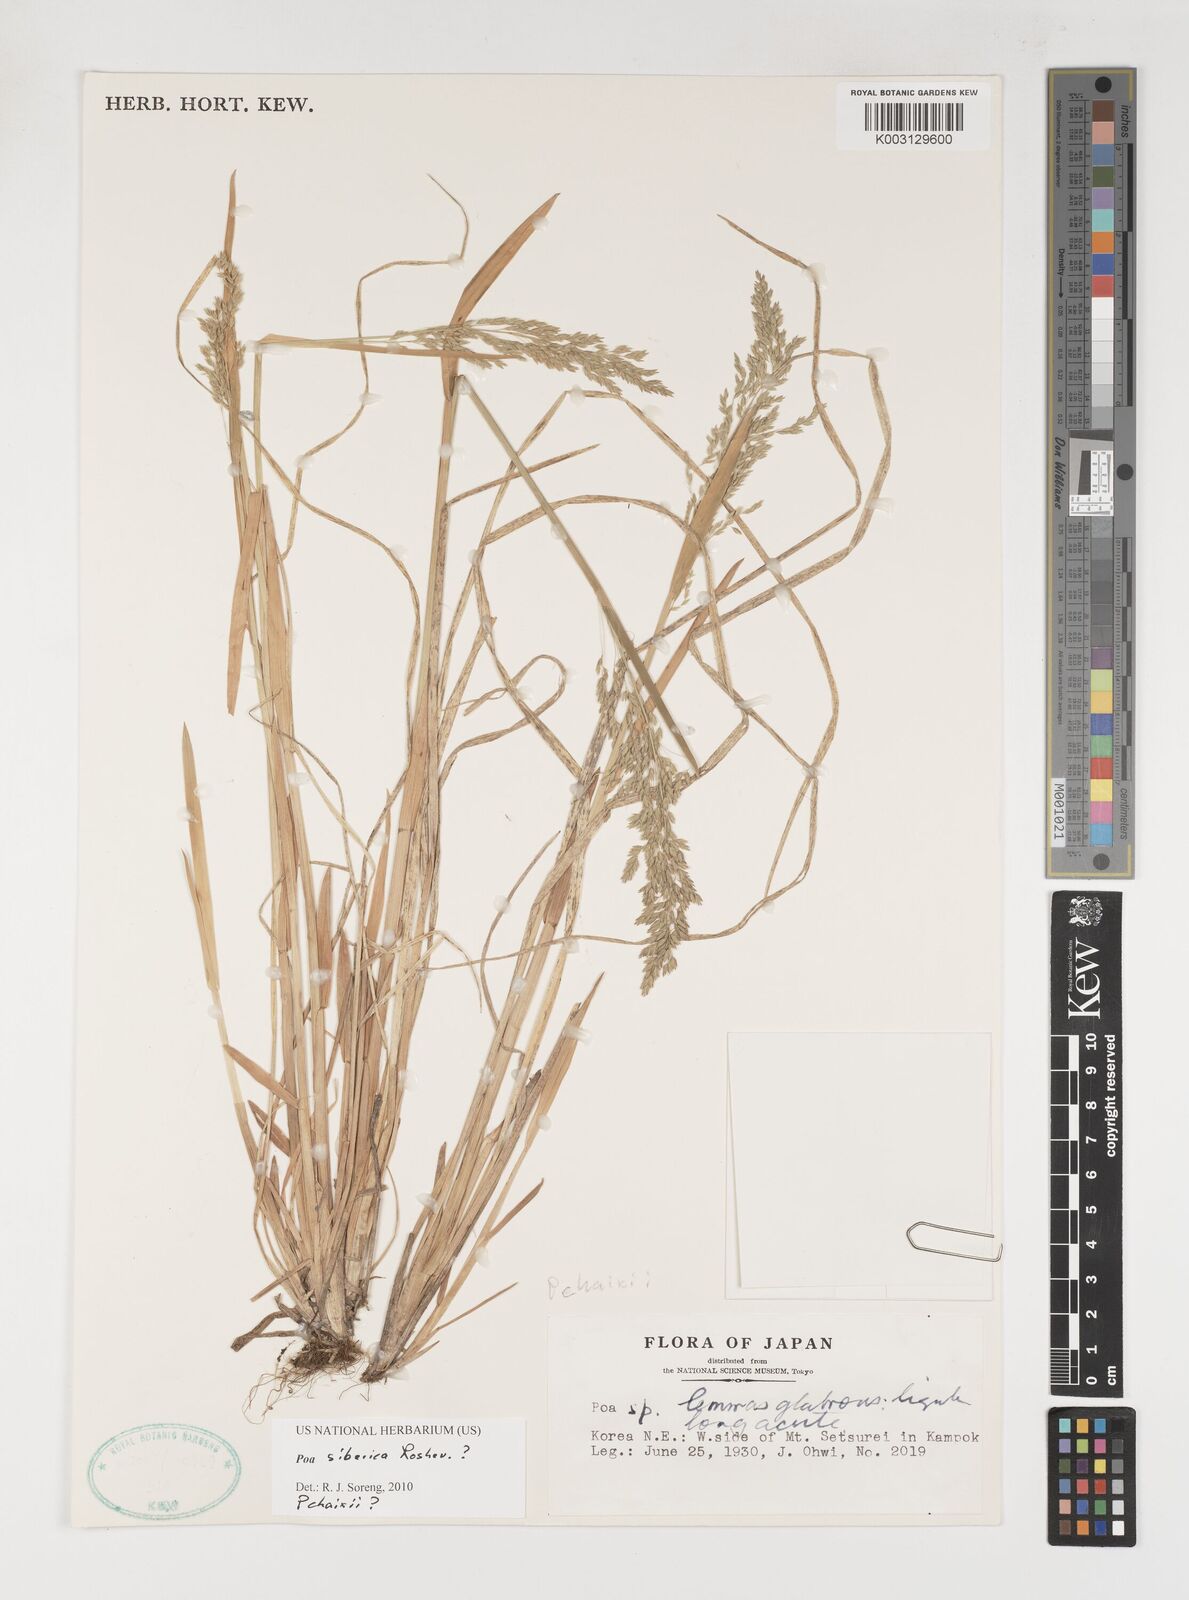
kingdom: Plantae
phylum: Tracheophyta
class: Liliopsida
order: Poales
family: Poaceae
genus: Poa
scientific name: Poa sibirica
